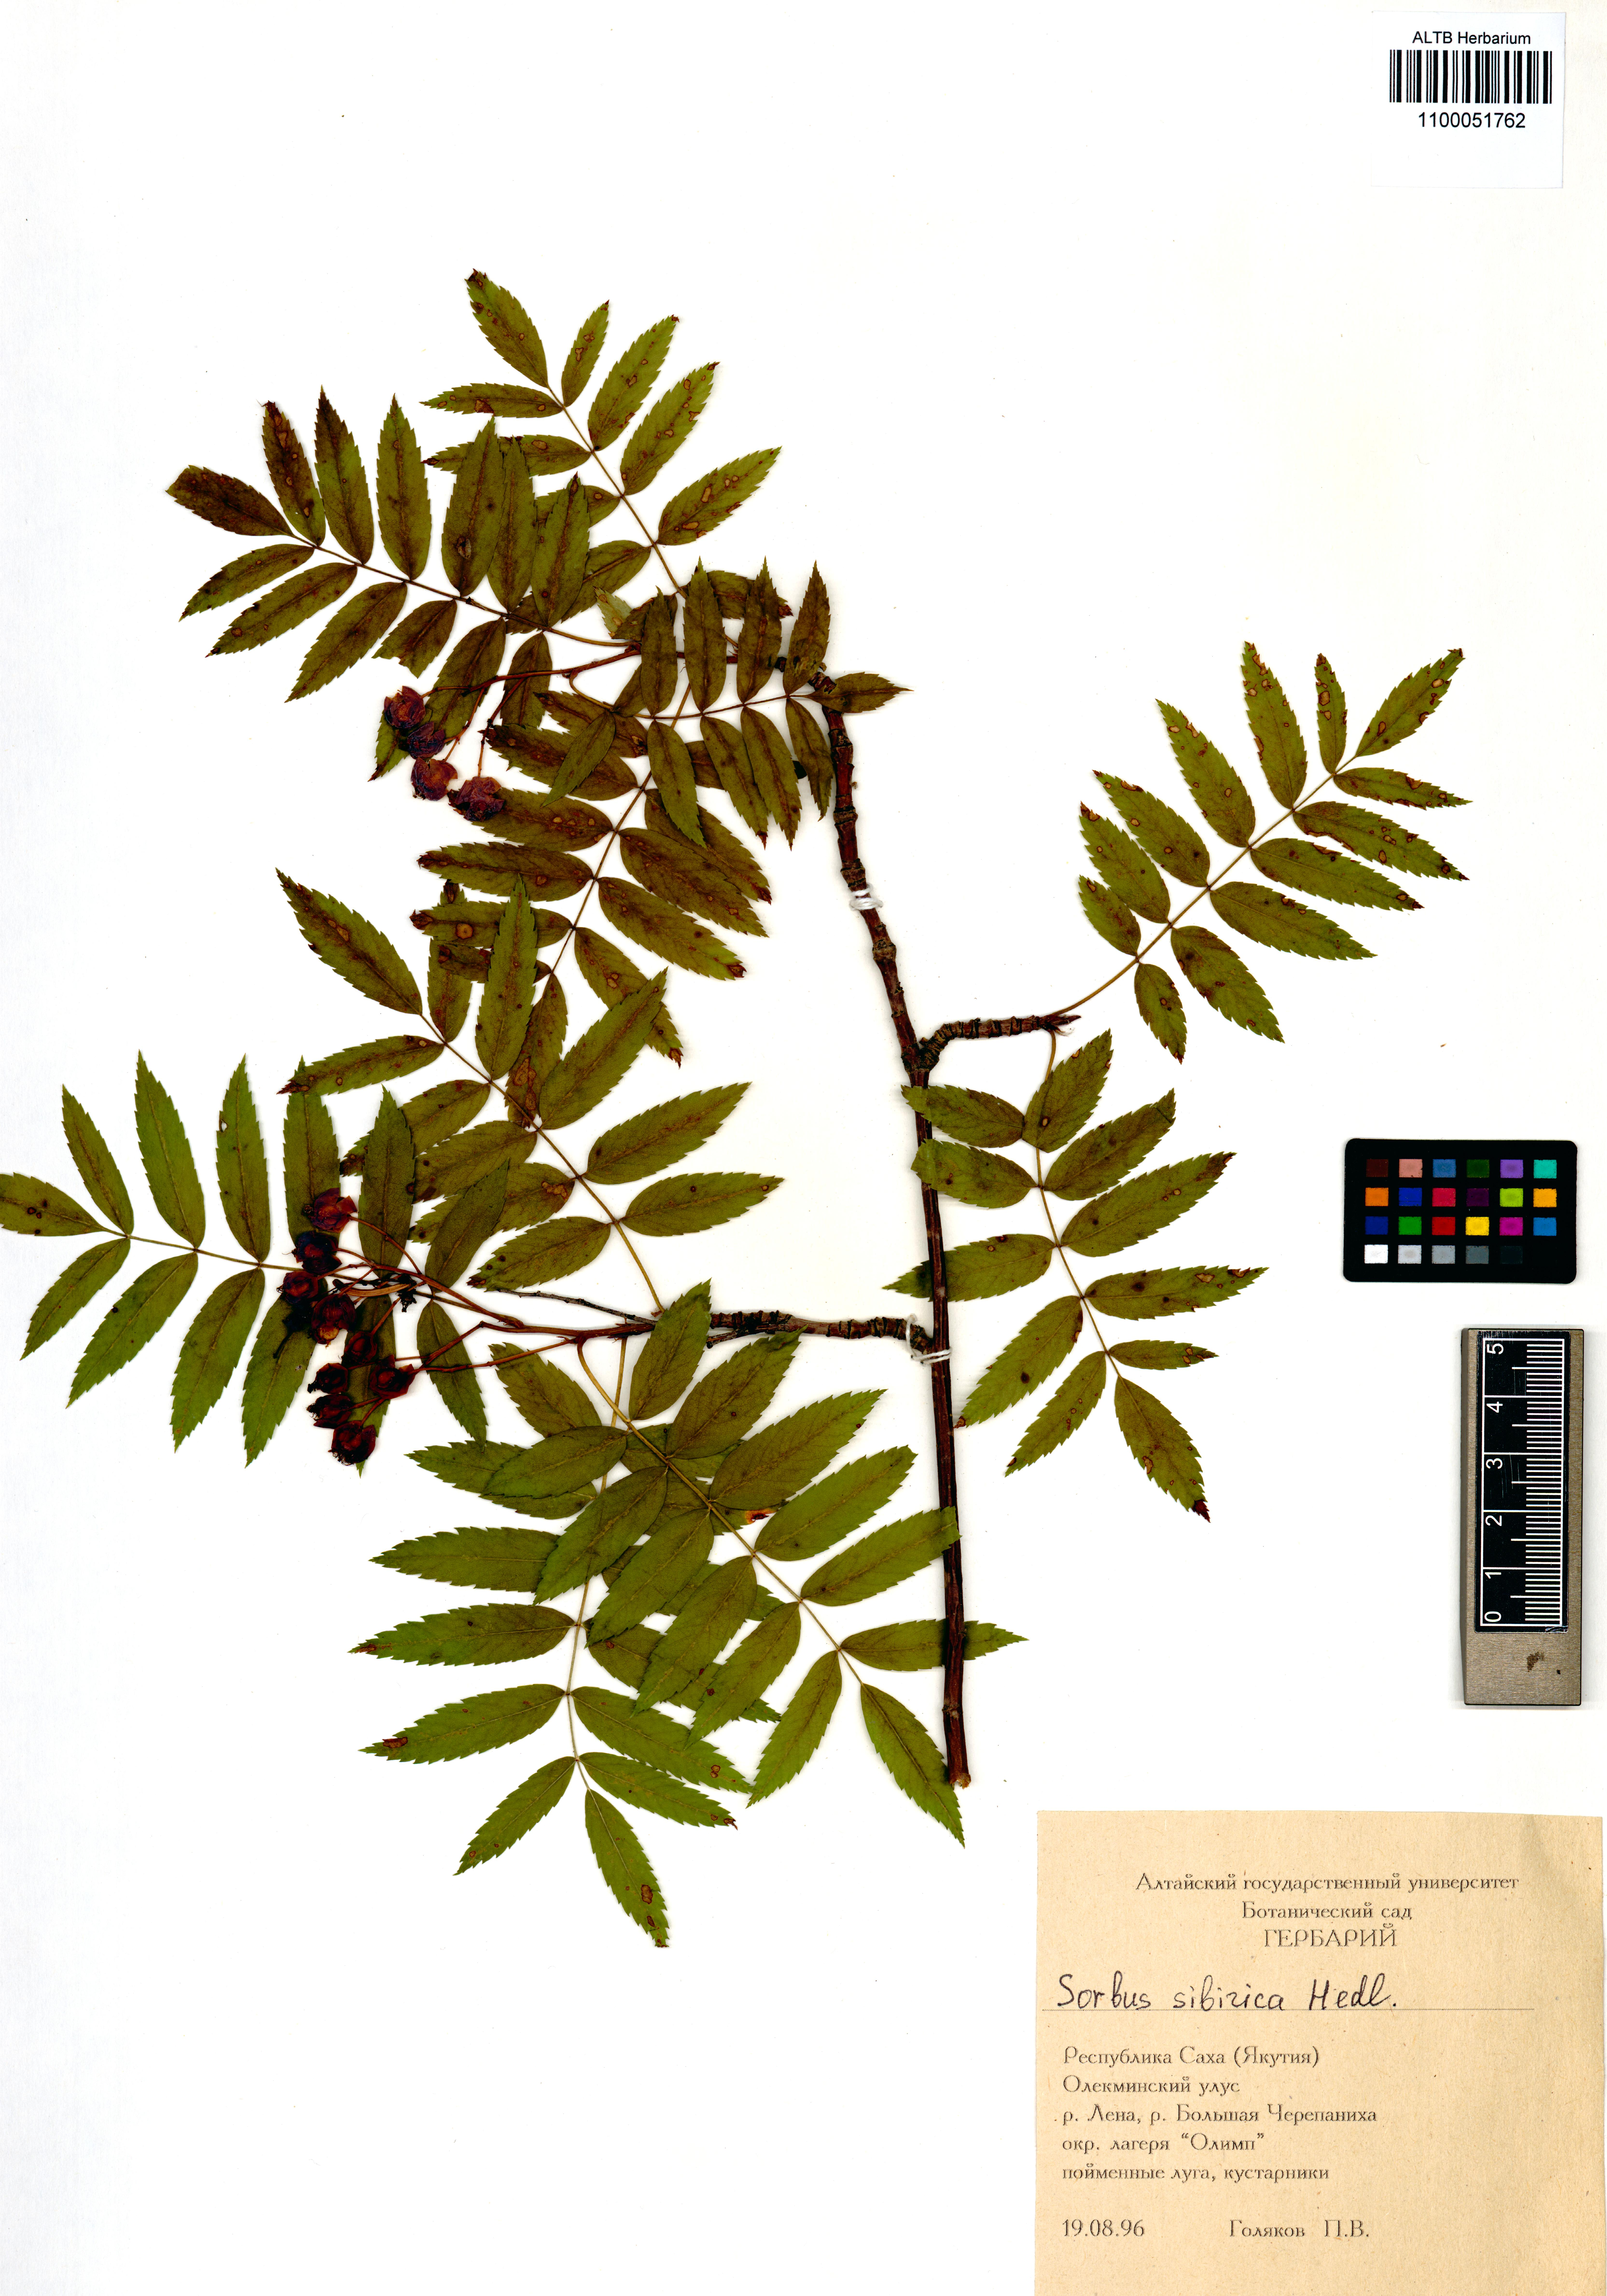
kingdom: Plantae
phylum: Tracheophyta
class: Magnoliopsida
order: Rosales
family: Rosaceae
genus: Sorbus
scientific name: Sorbus aucuparia
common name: Rowan
